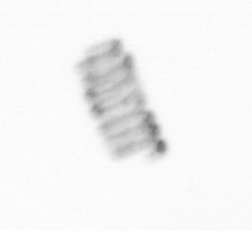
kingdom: Chromista
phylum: Ochrophyta
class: Bacillariophyceae
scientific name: Bacillariophyceae
